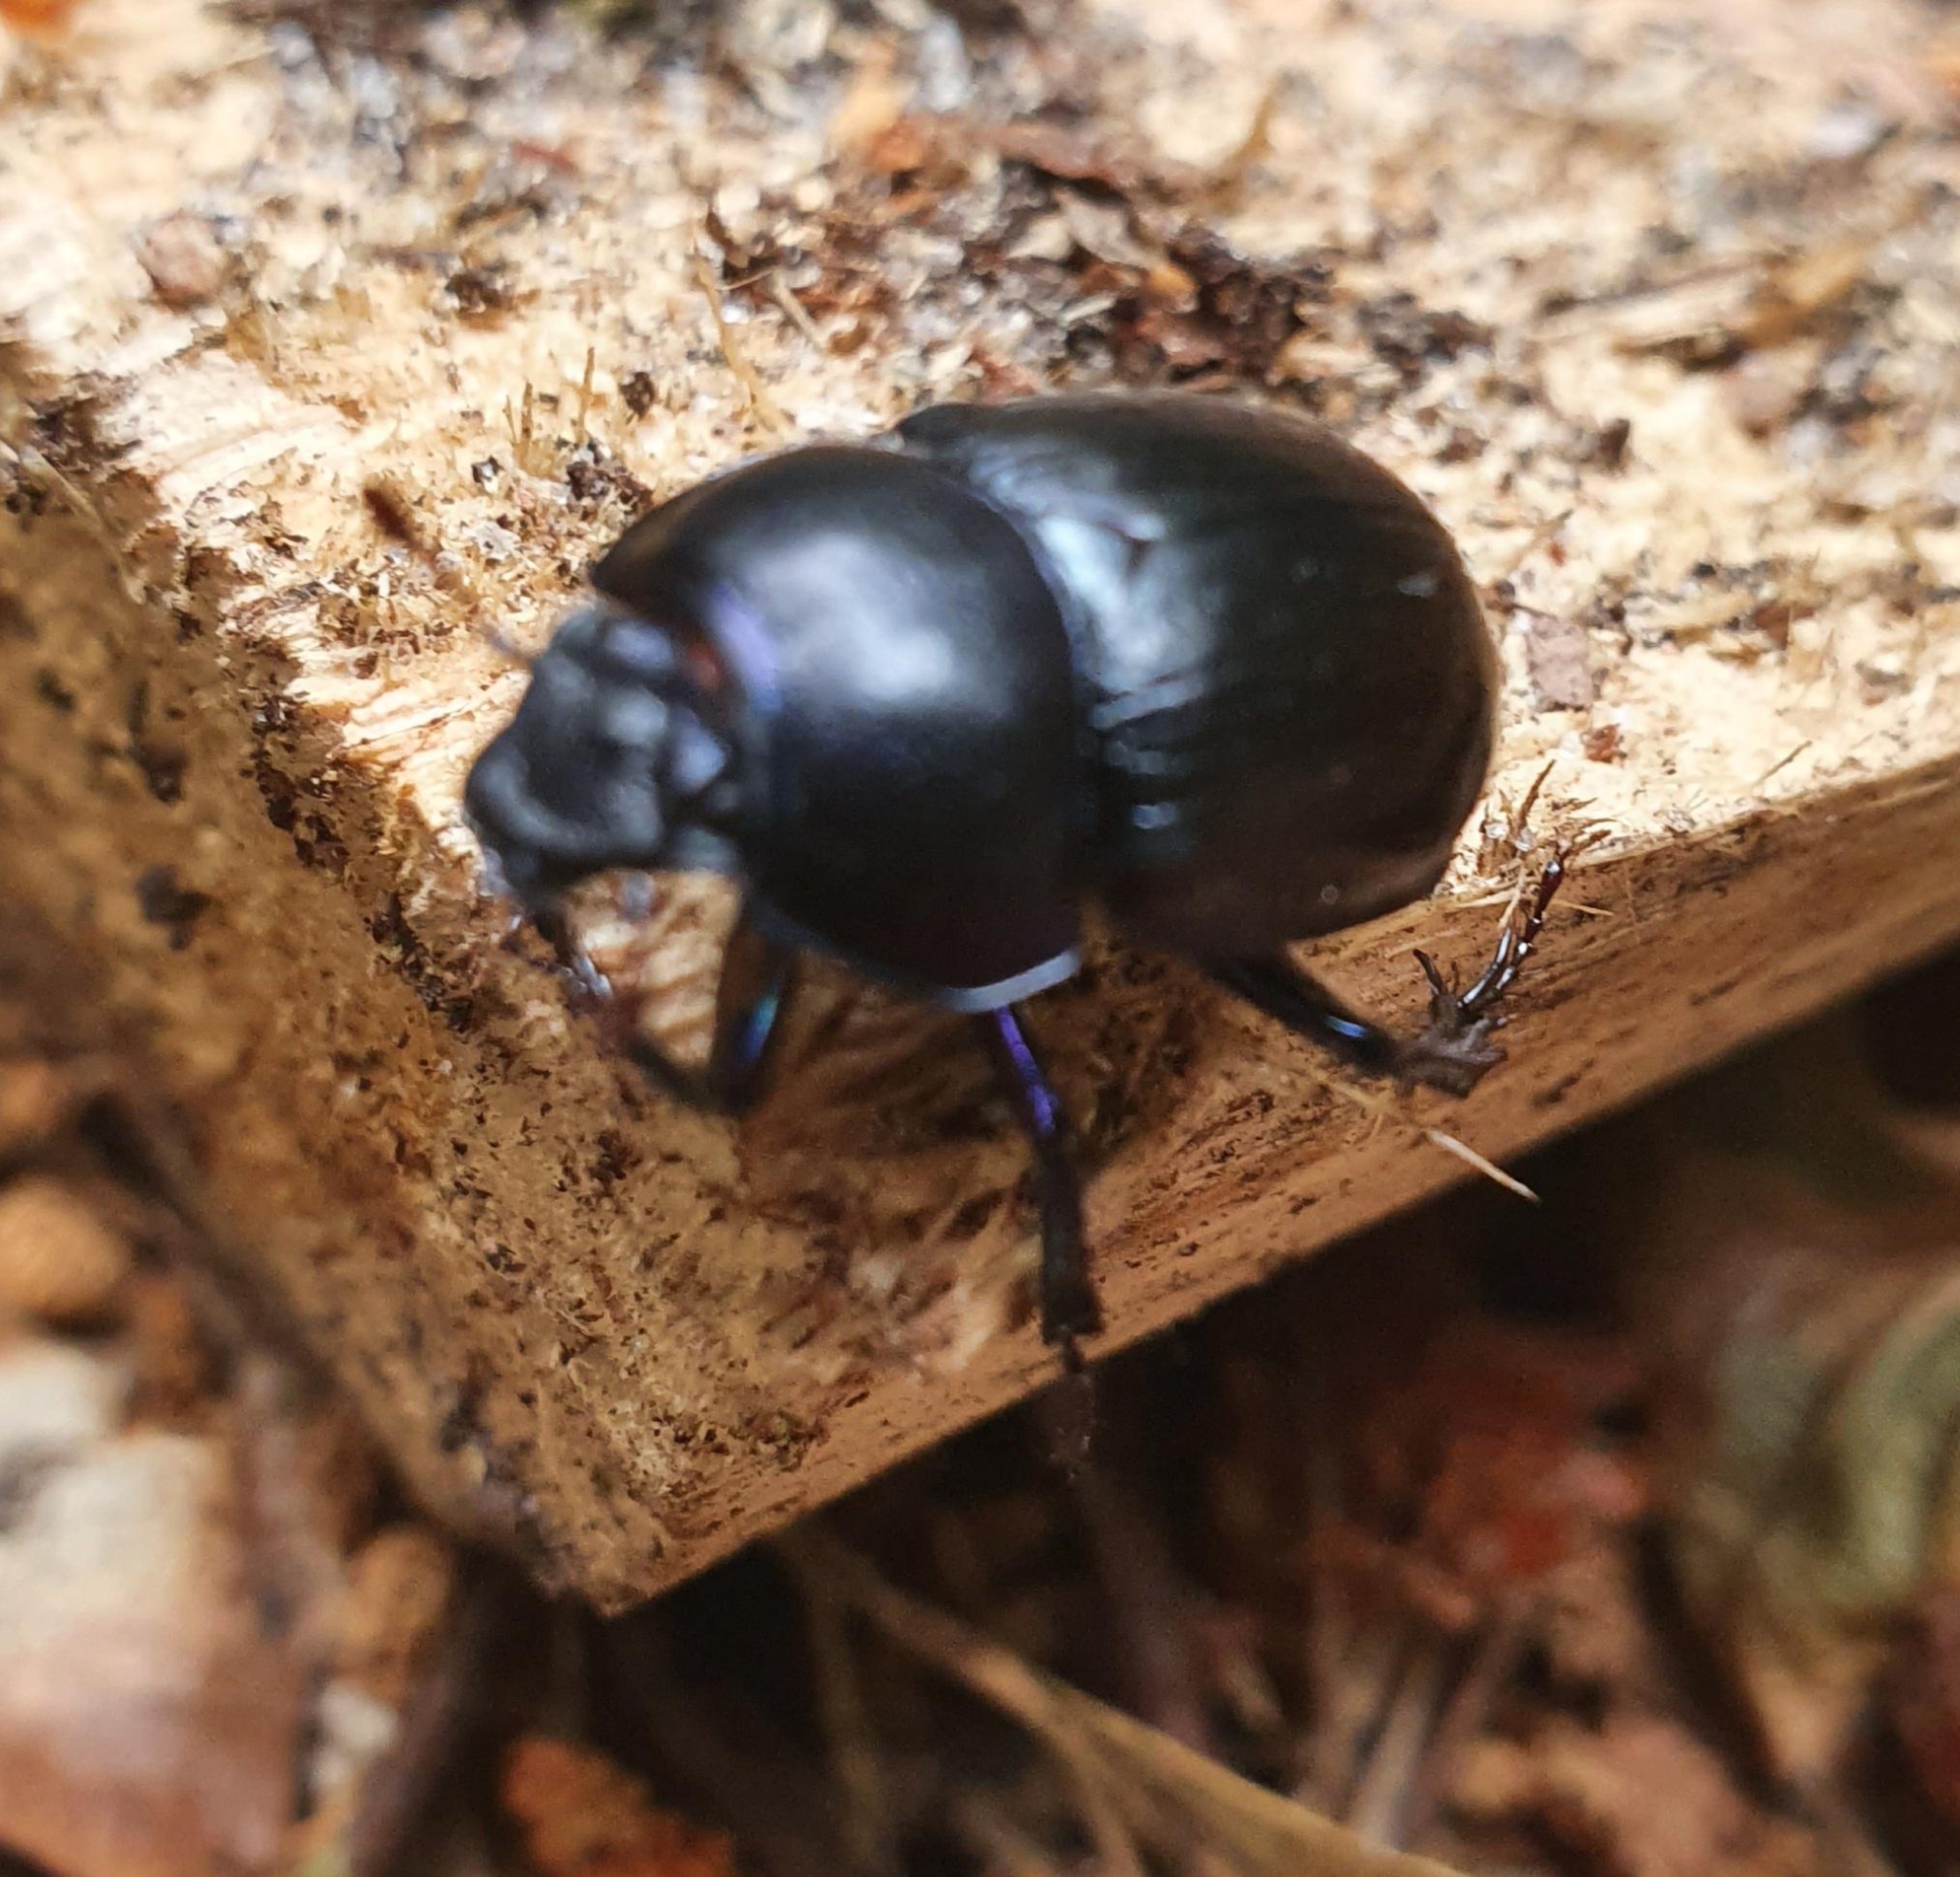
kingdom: Animalia
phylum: Arthropoda
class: Insecta
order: Coleoptera
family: Geotrupidae
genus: Anoplotrupes
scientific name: Anoplotrupes stercorosus
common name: Skovskarnbasse
